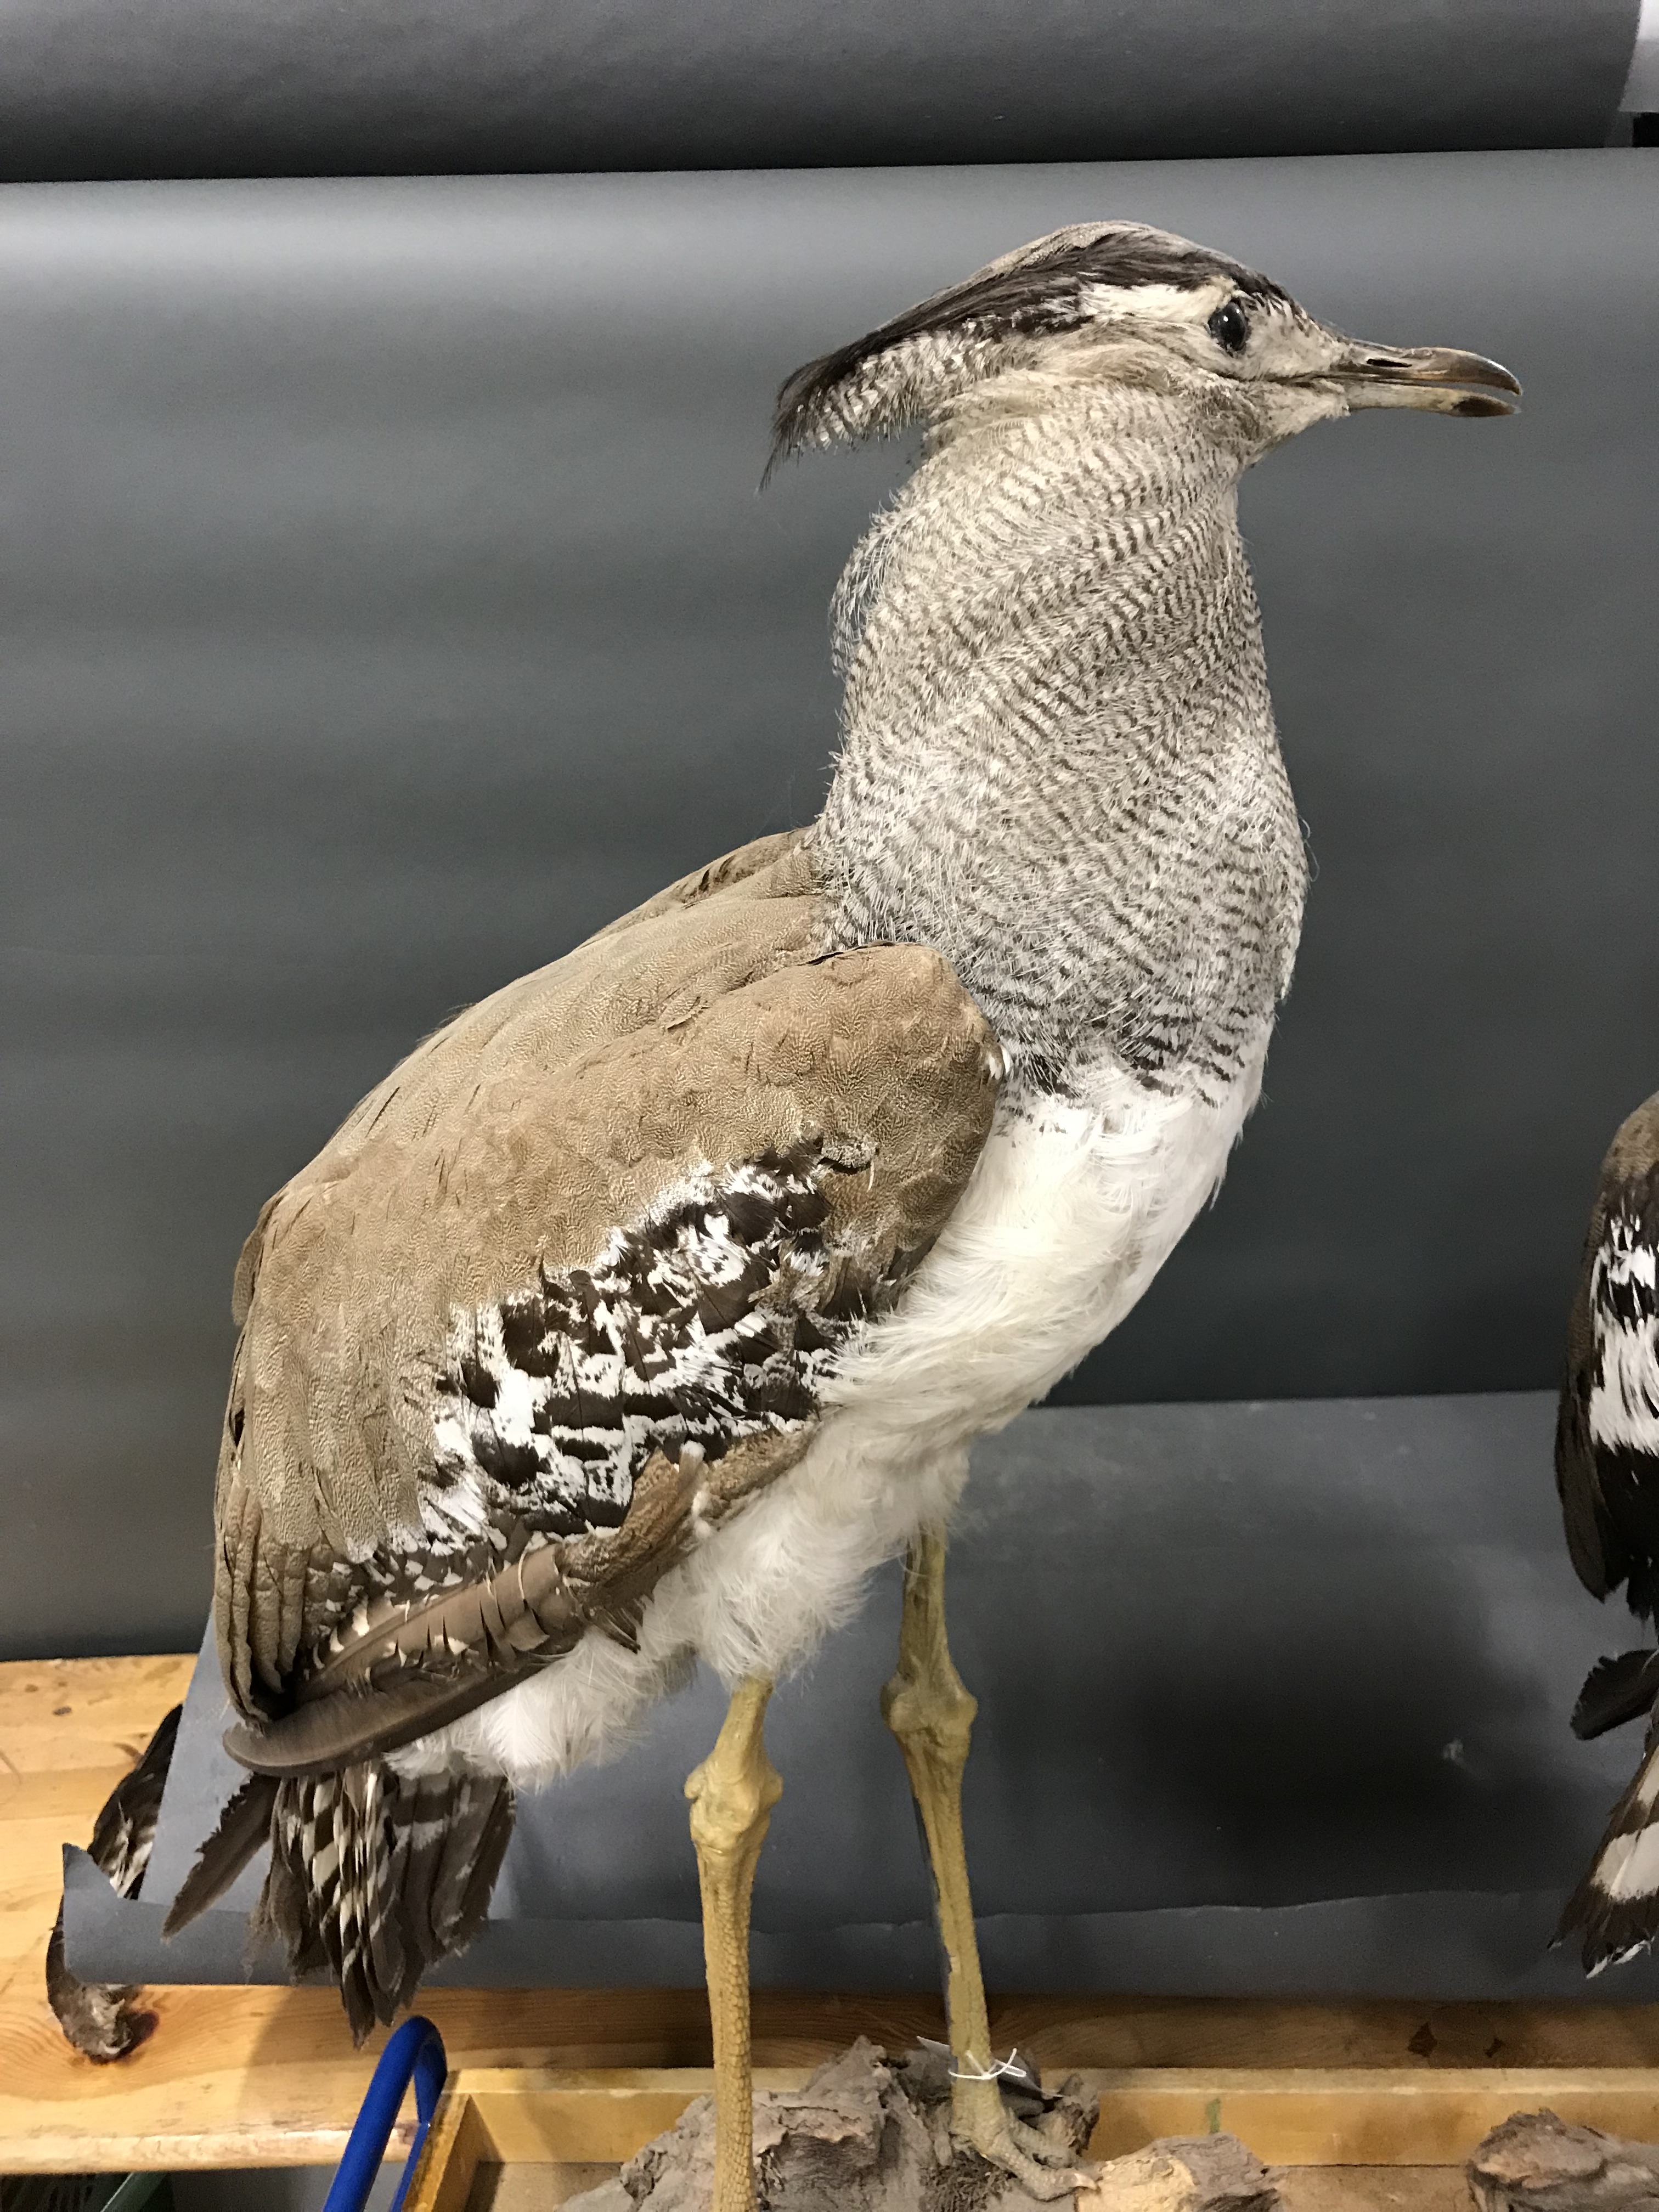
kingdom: Animalia
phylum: Chordata
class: Aves
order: Otidiformes
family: Otididae
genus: Ardeotis
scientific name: Ardeotis kori
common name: Kori bustard
